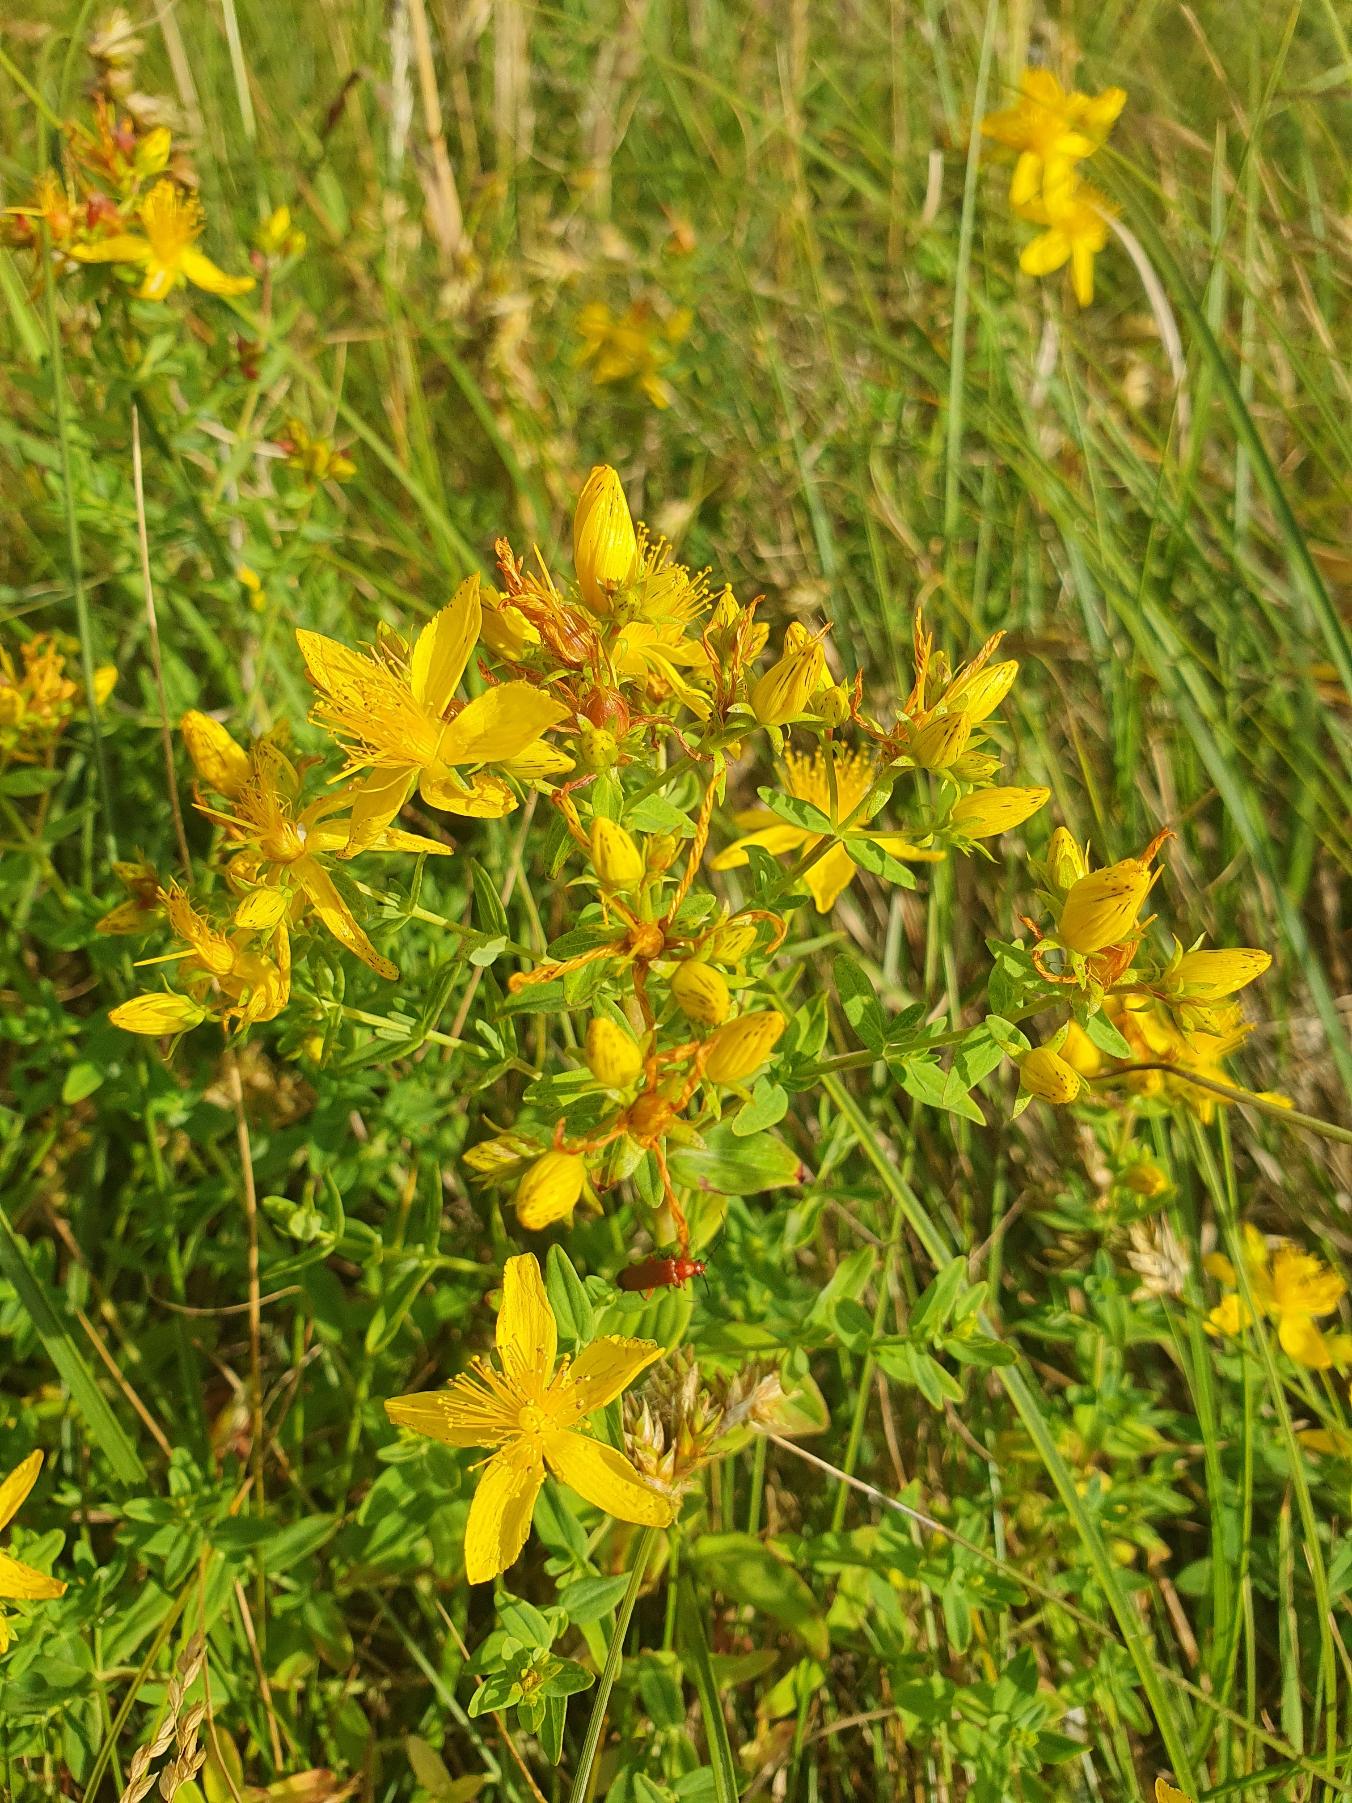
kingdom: Plantae
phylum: Tracheophyta
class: Magnoliopsida
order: Malpighiales
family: Hypericaceae
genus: Hypericum
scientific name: Hypericum perforatum
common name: Prikbladet perikon
